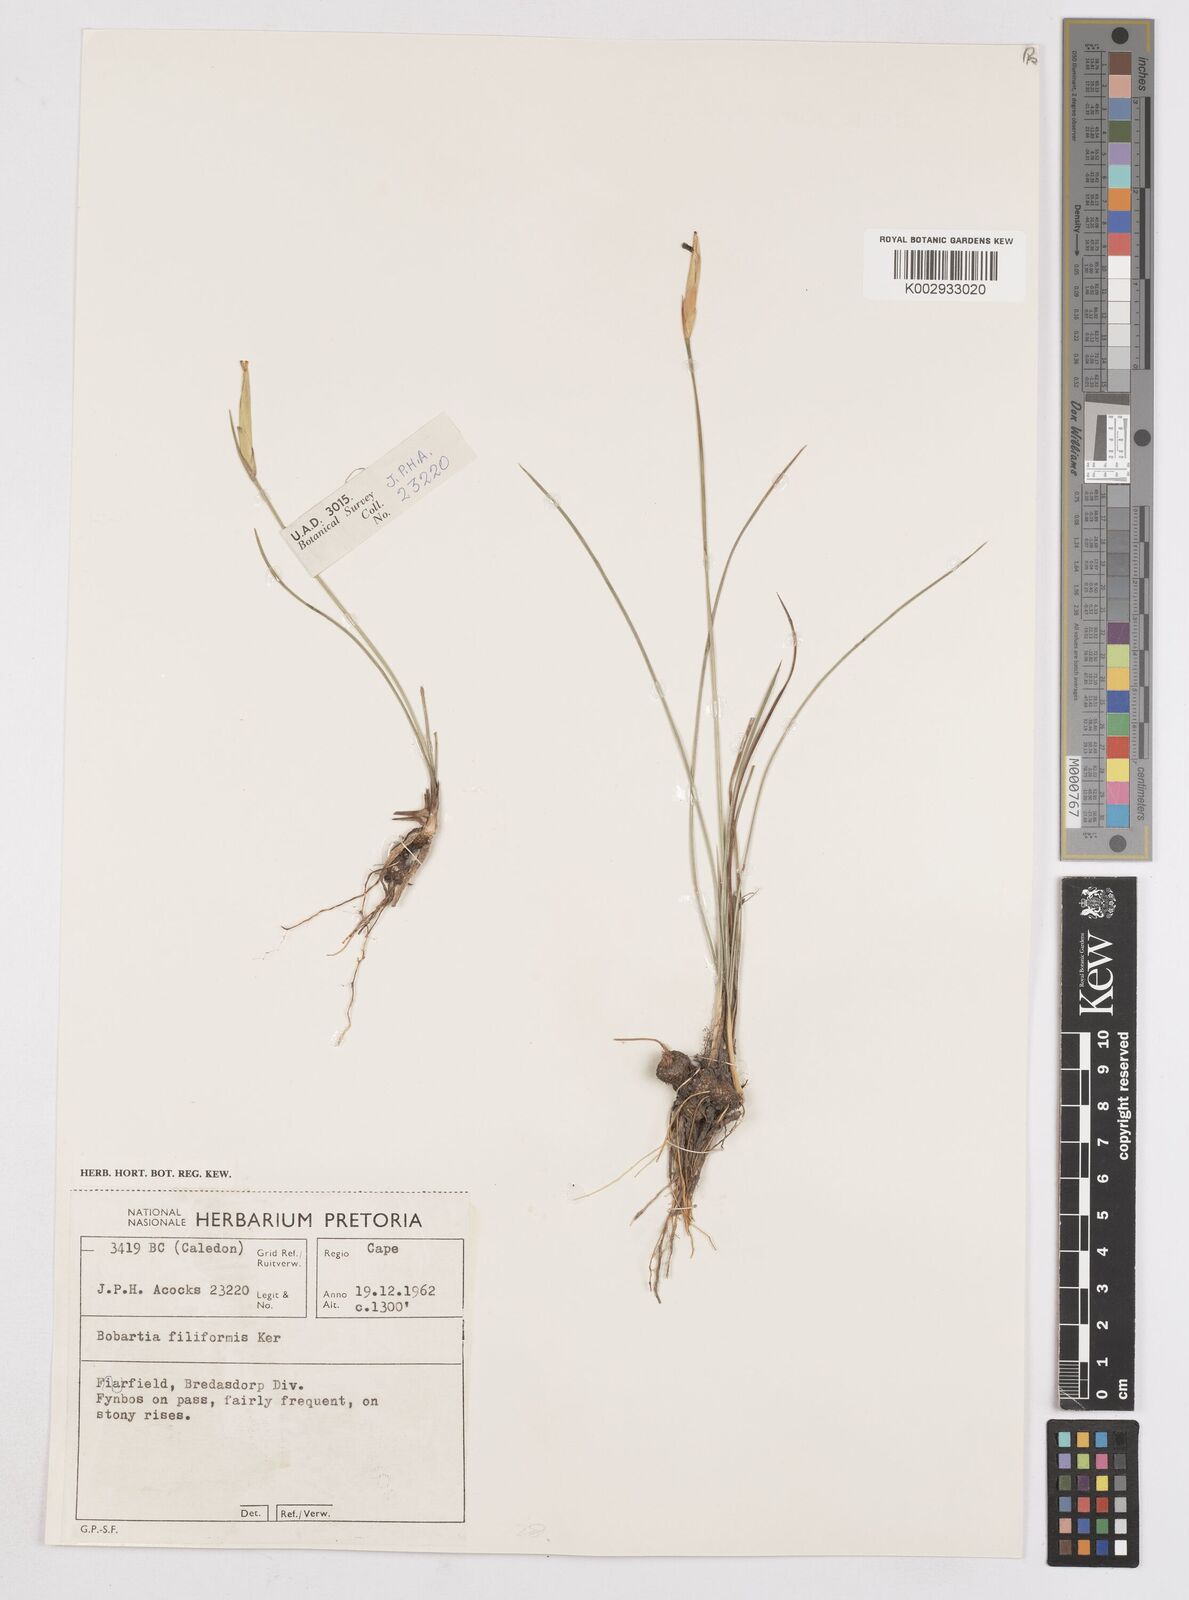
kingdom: Plantae
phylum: Tracheophyta
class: Liliopsida
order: Asparagales
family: Iridaceae
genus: Bobartia
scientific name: Bobartia filiformis
